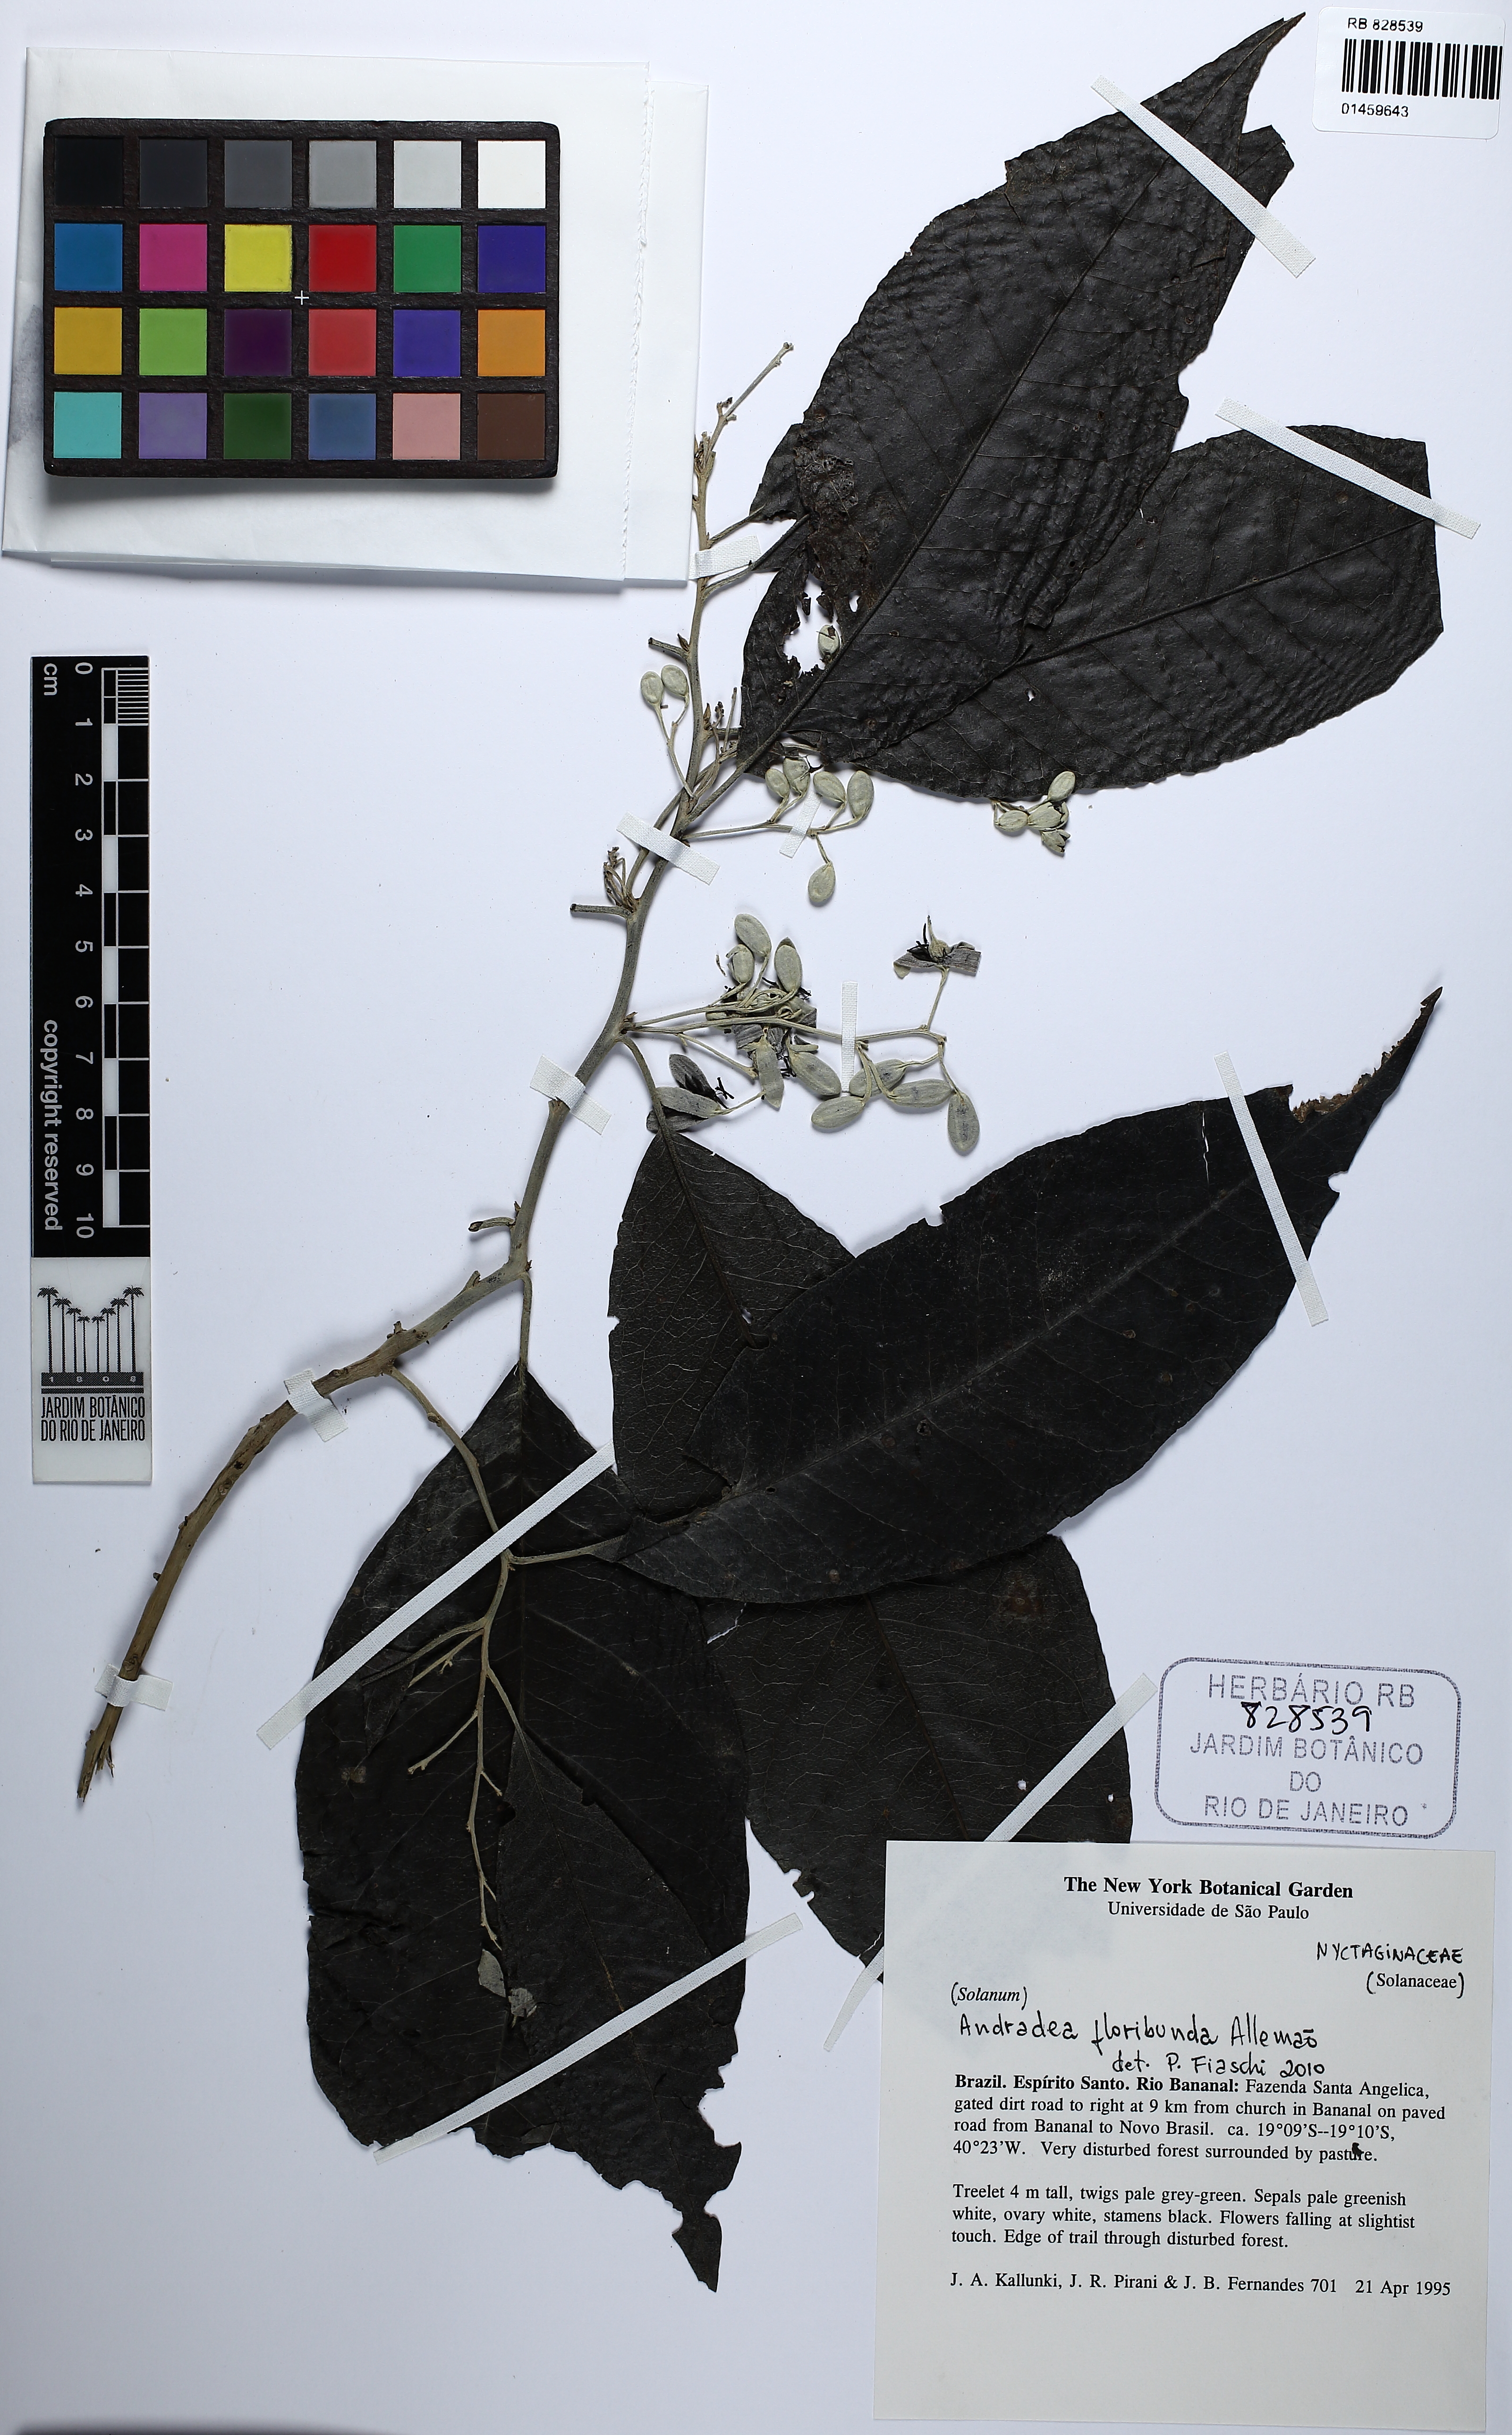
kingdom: Plantae
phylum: Tracheophyta
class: Magnoliopsida
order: Caryophyllales
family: Nyctaginaceae
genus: Andradea
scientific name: Andradea floribunda
